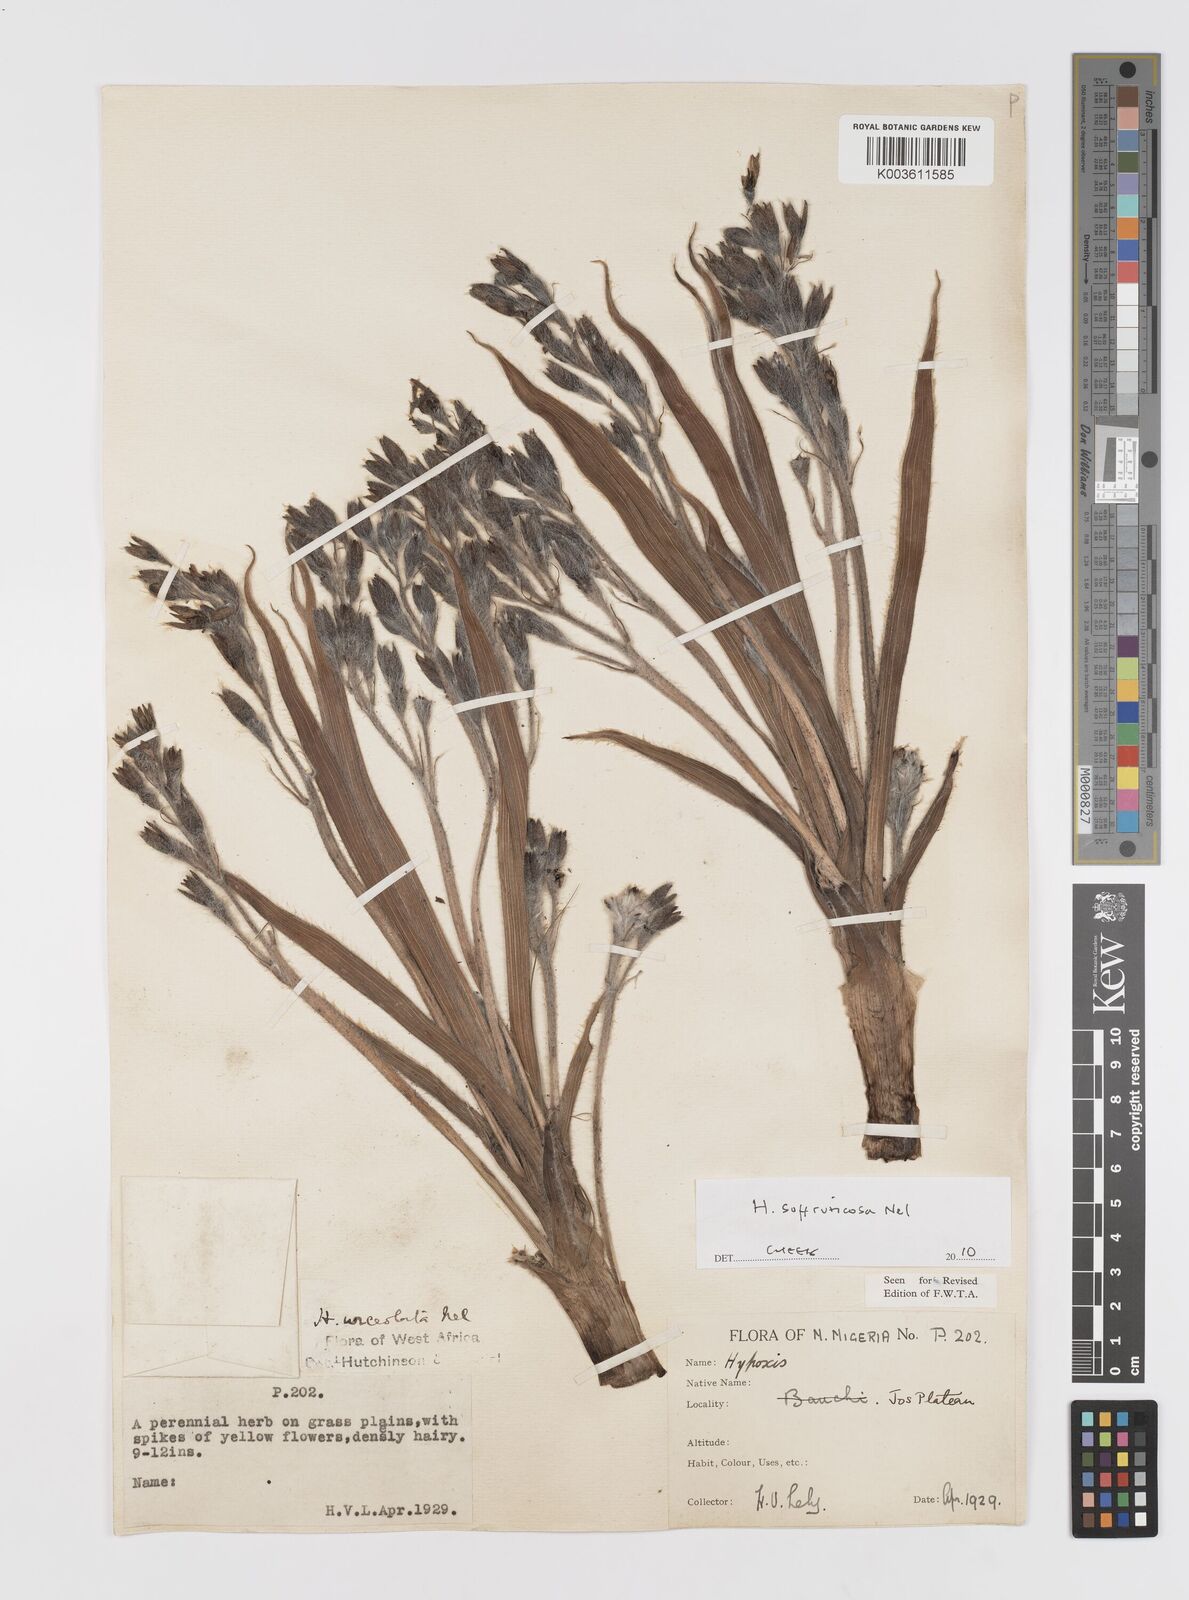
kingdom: Plantae
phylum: Tracheophyta
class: Liliopsida
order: Asparagales
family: Hypoxidaceae
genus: Hypoxis
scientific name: Hypoxis suffruticosa
